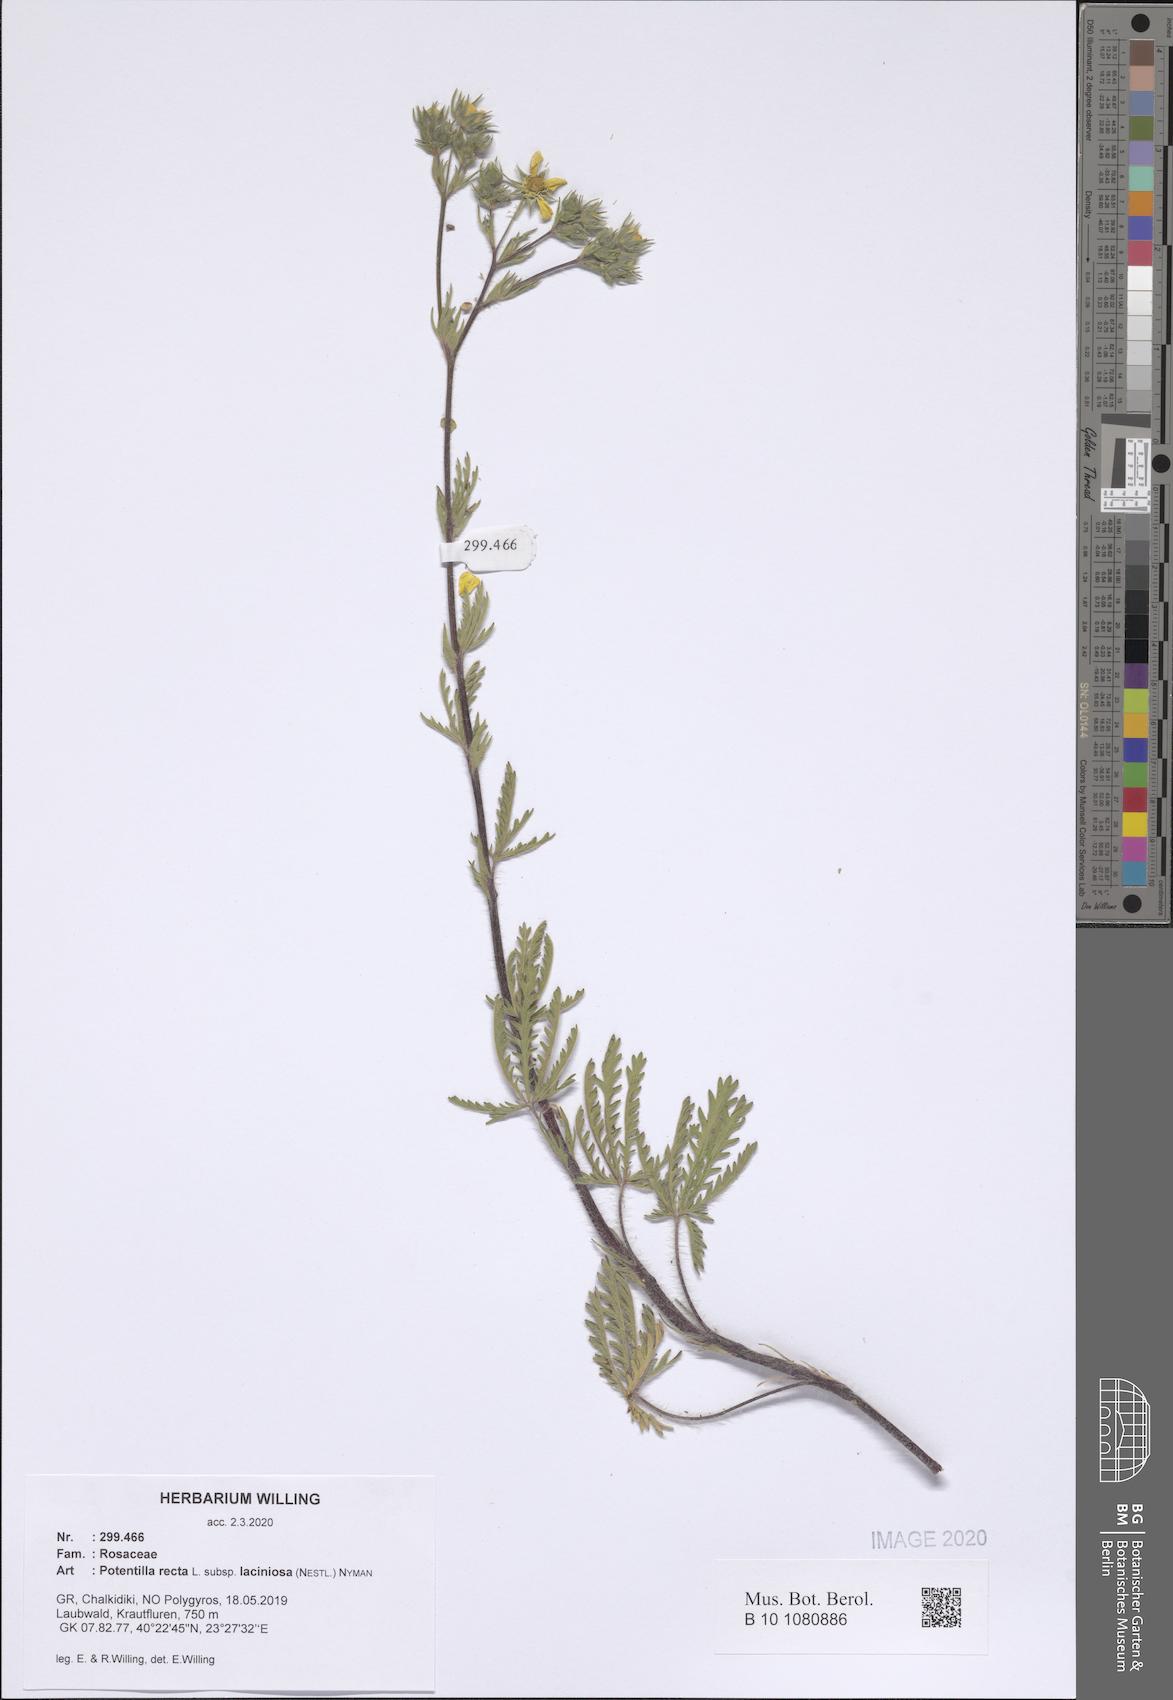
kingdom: Plantae
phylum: Tracheophyta
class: Magnoliopsida
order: Rosales
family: Rosaceae
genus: Potentilla
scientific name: Potentilla recta
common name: Sulphur cinquefoil
